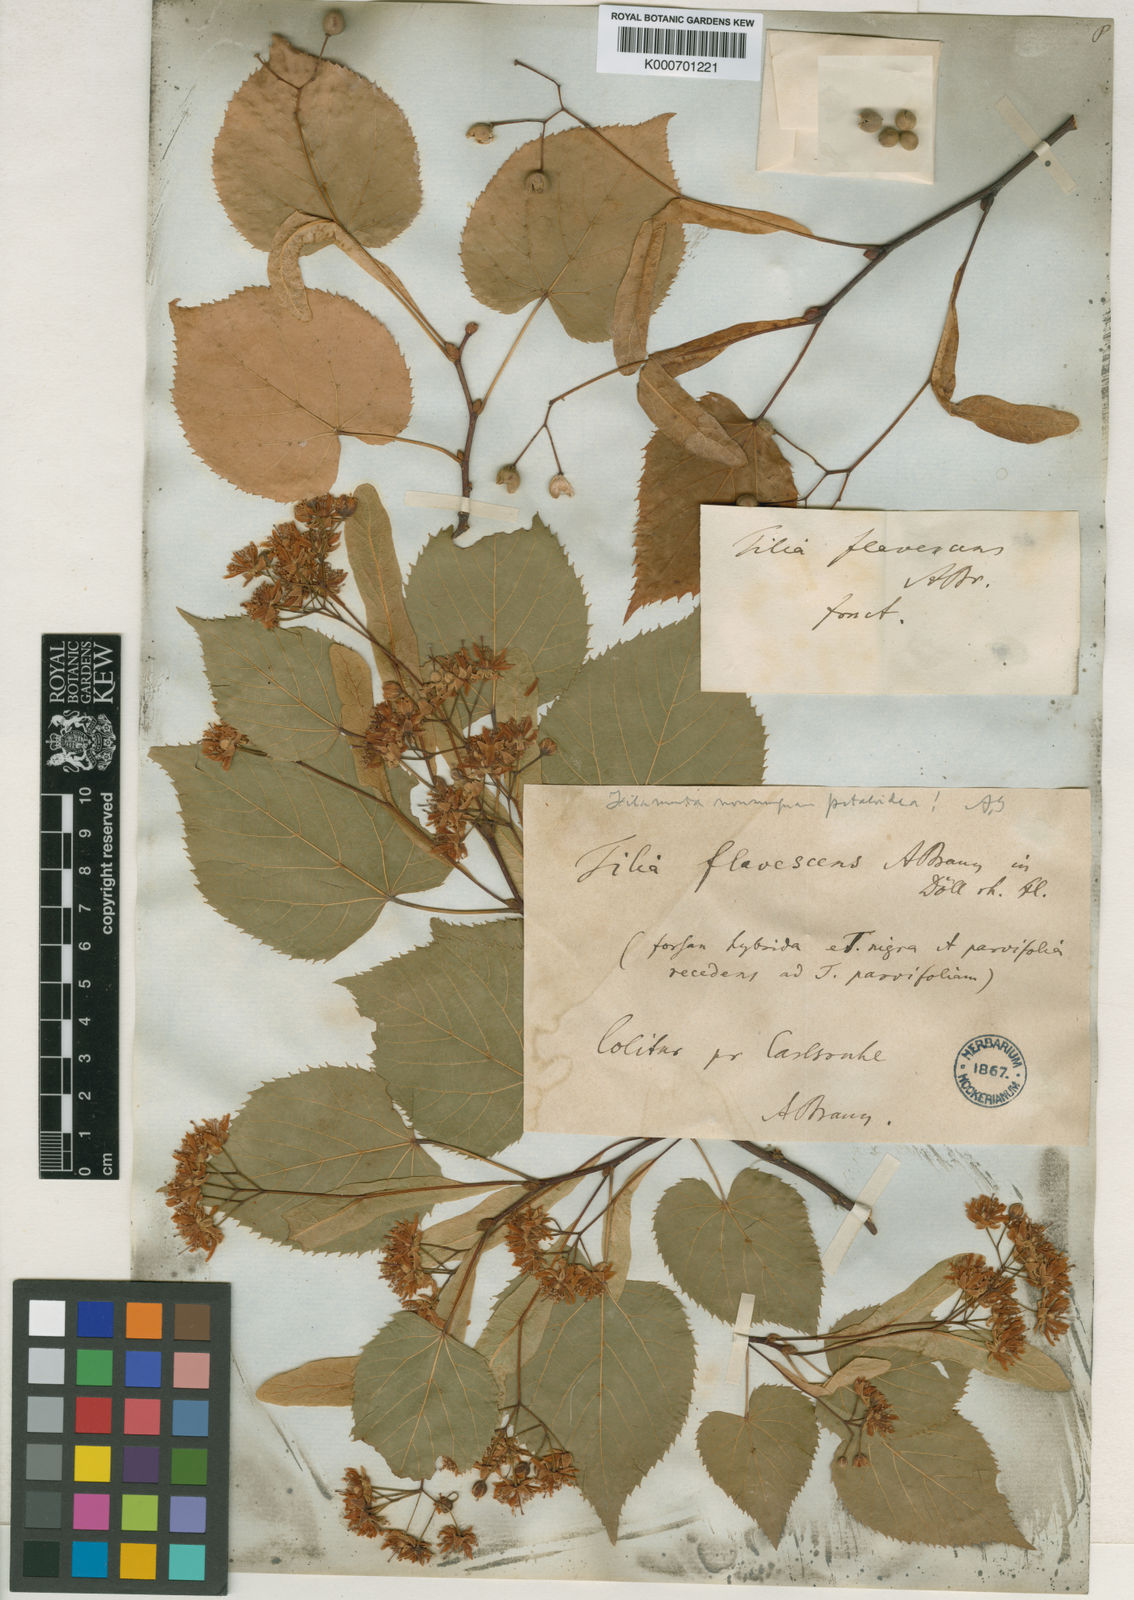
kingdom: Plantae
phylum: Tracheophyta
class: Magnoliopsida
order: Malvales
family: Malvaceae
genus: Tilia
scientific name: Tilia americana
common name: Basswood
